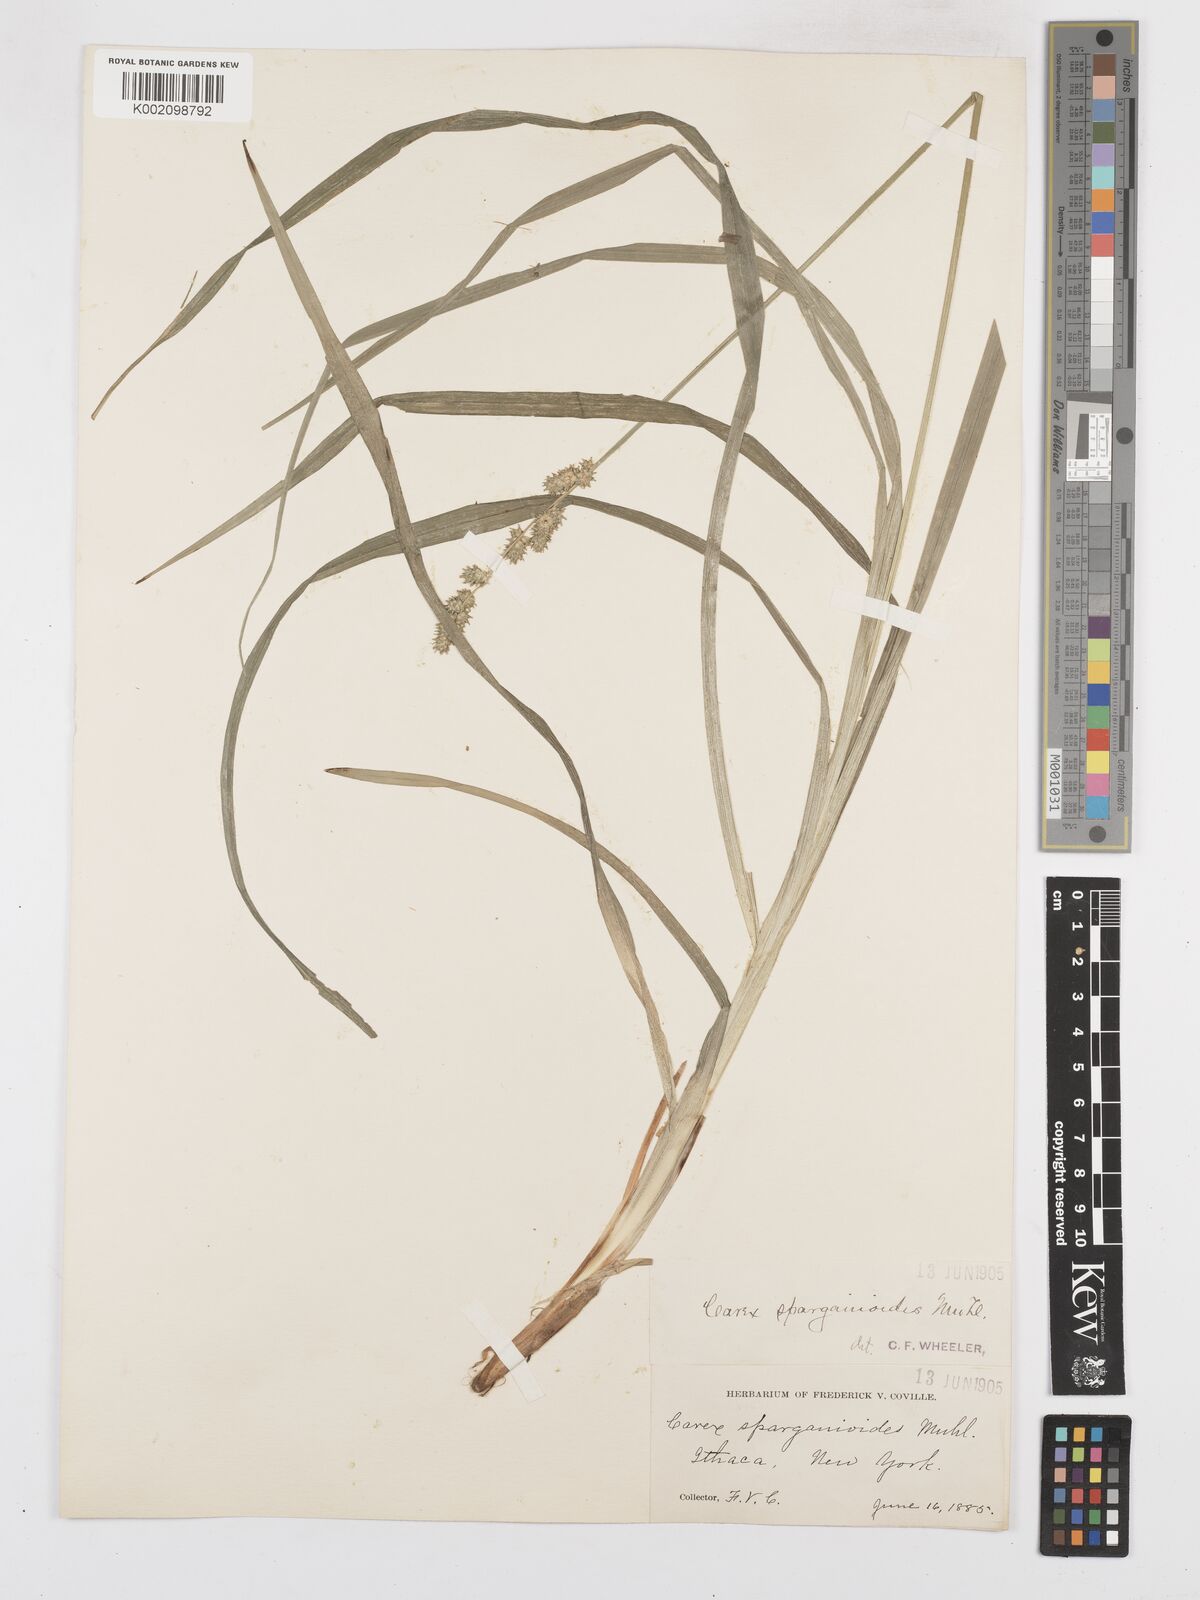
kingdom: Plantae
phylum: Tracheophyta
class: Liliopsida
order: Poales
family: Cyperaceae
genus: Carex
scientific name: Carex sparganioides
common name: Burreed sedge
